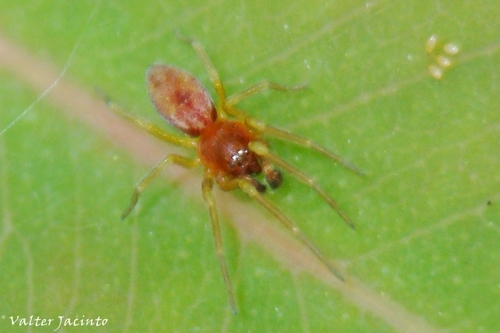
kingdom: Animalia
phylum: Arthropoda
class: Arachnida
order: Araneae
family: Dictynidae
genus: Nigma
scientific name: Nigma flavescens
